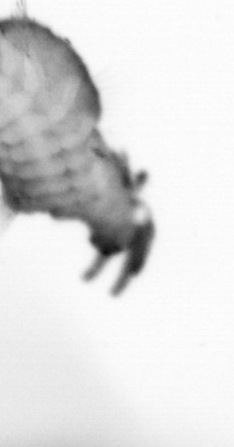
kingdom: Animalia
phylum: Annelida
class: Polychaeta
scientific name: Polychaeta
